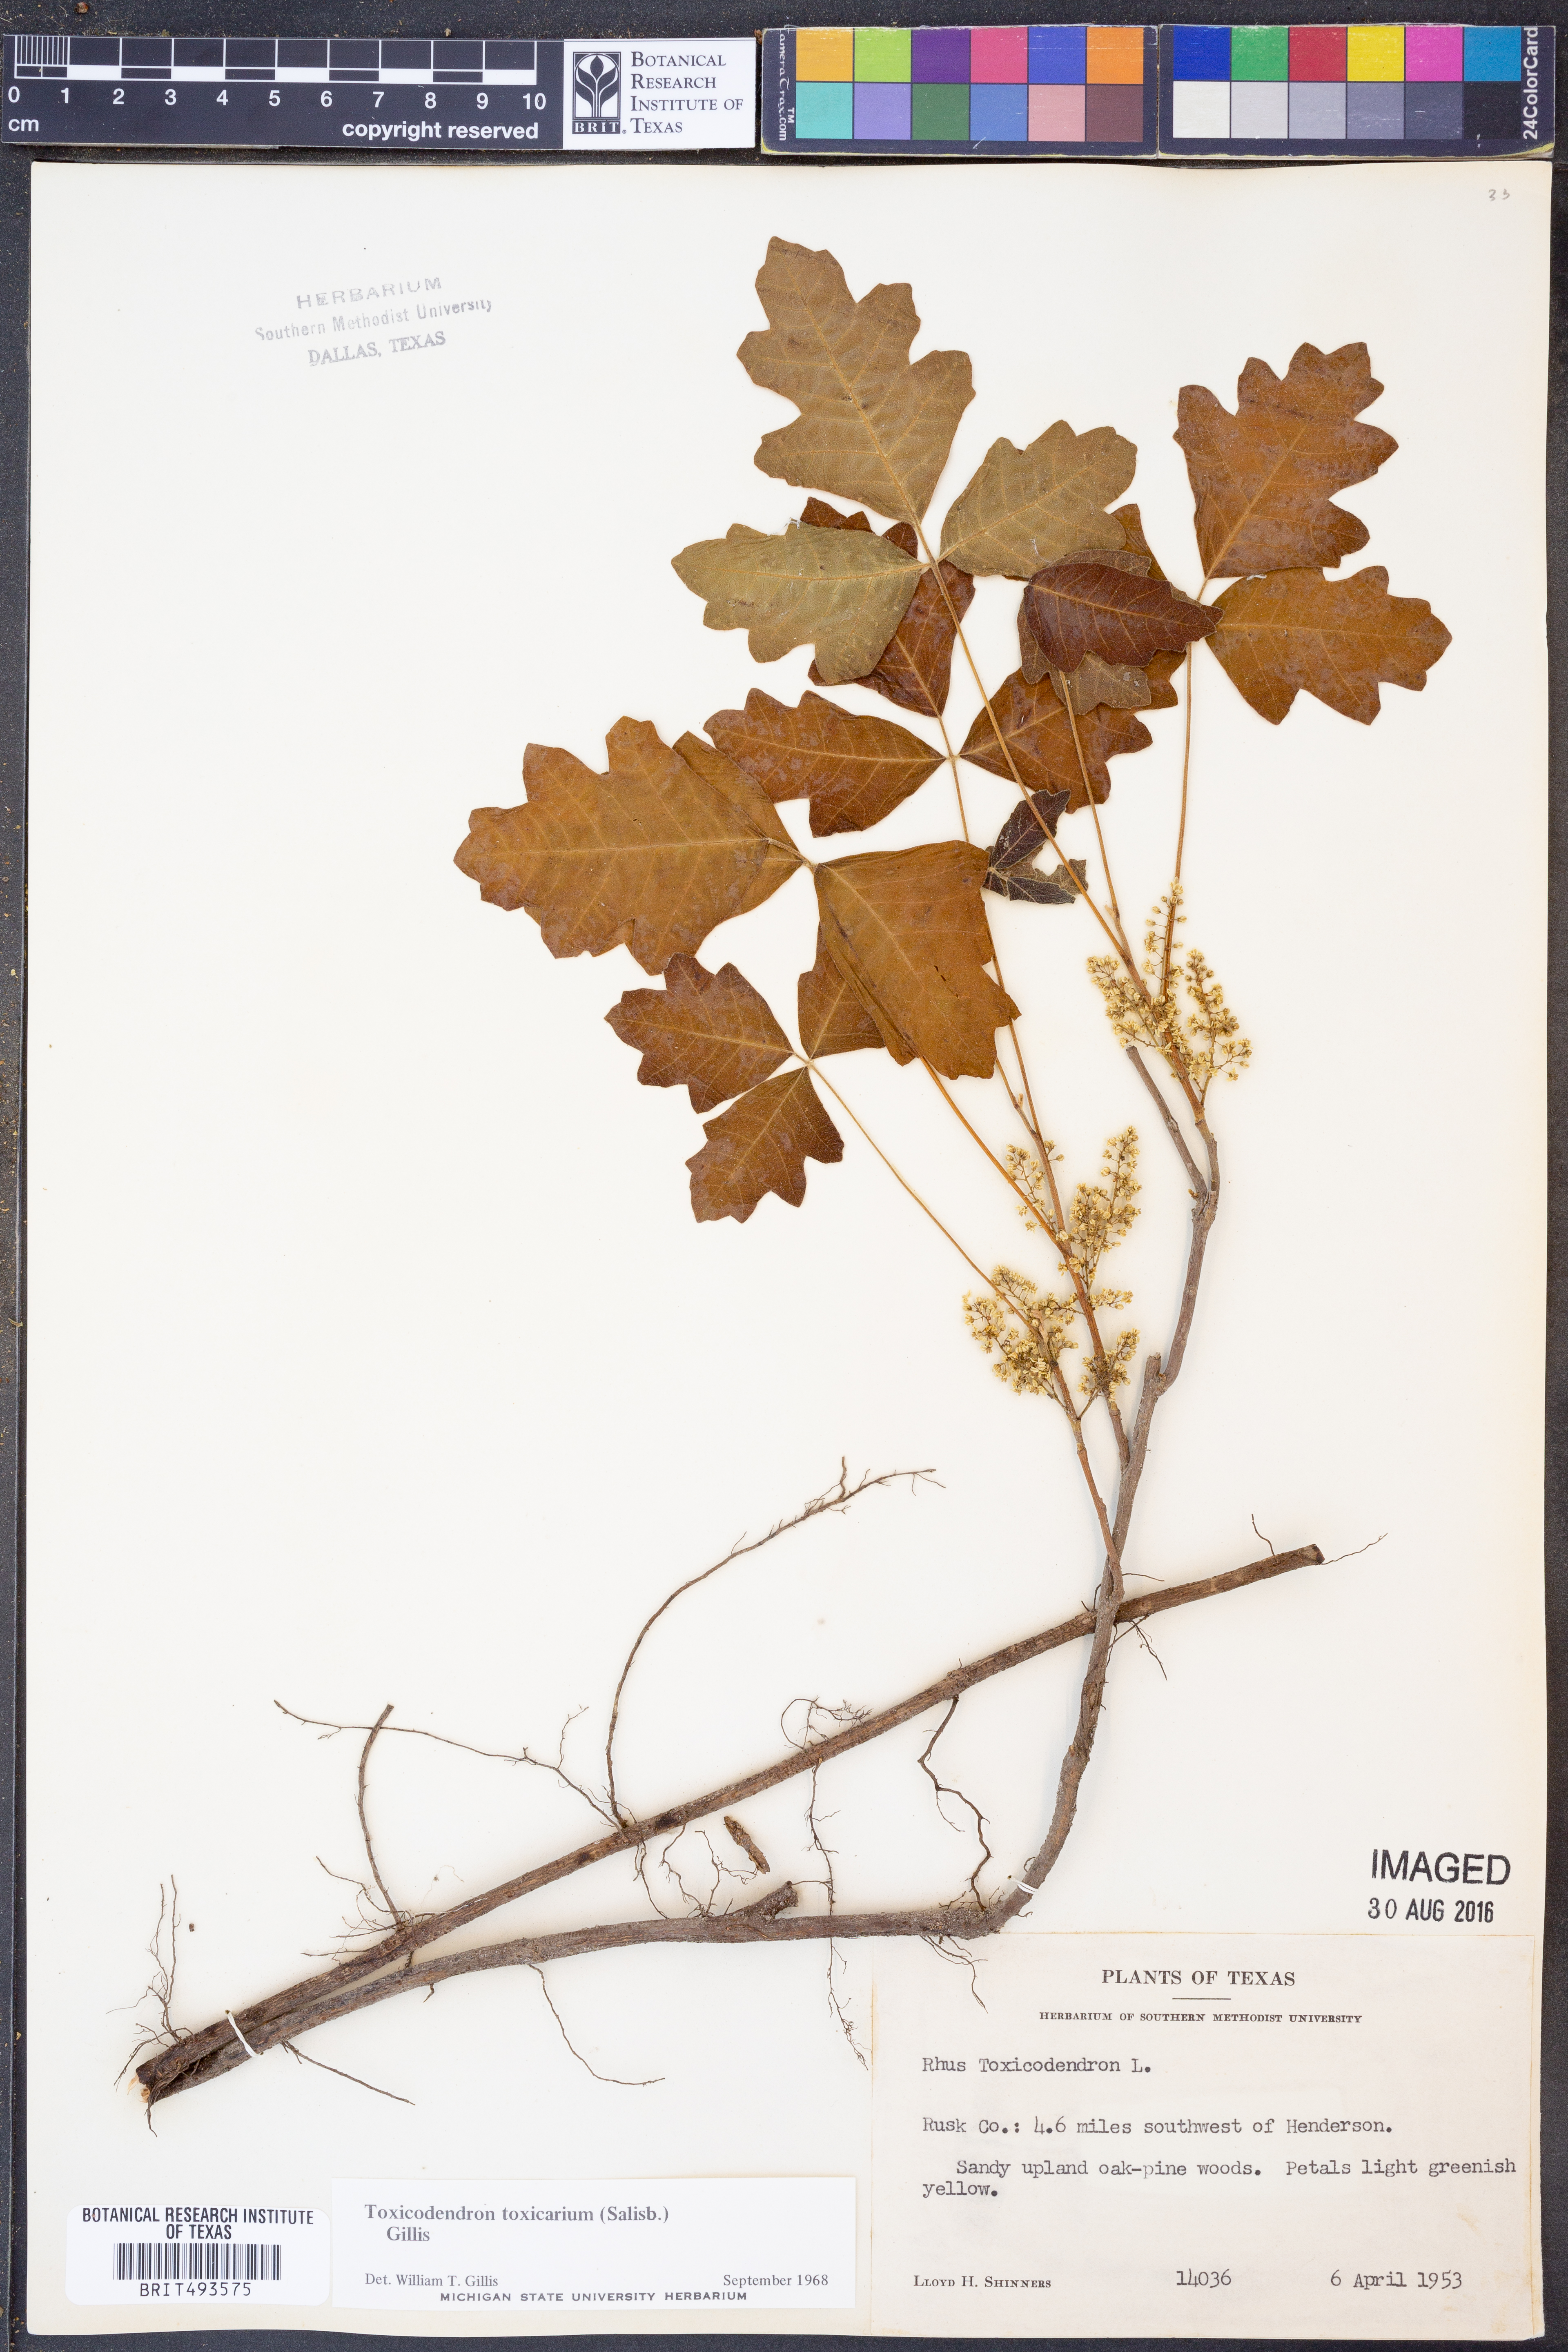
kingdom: Plantae
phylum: Tracheophyta
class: Magnoliopsida
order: Sapindales
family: Anacardiaceae
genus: Toxicodendron
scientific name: Toxicodendron pubescens
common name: Eastern poison-oak
